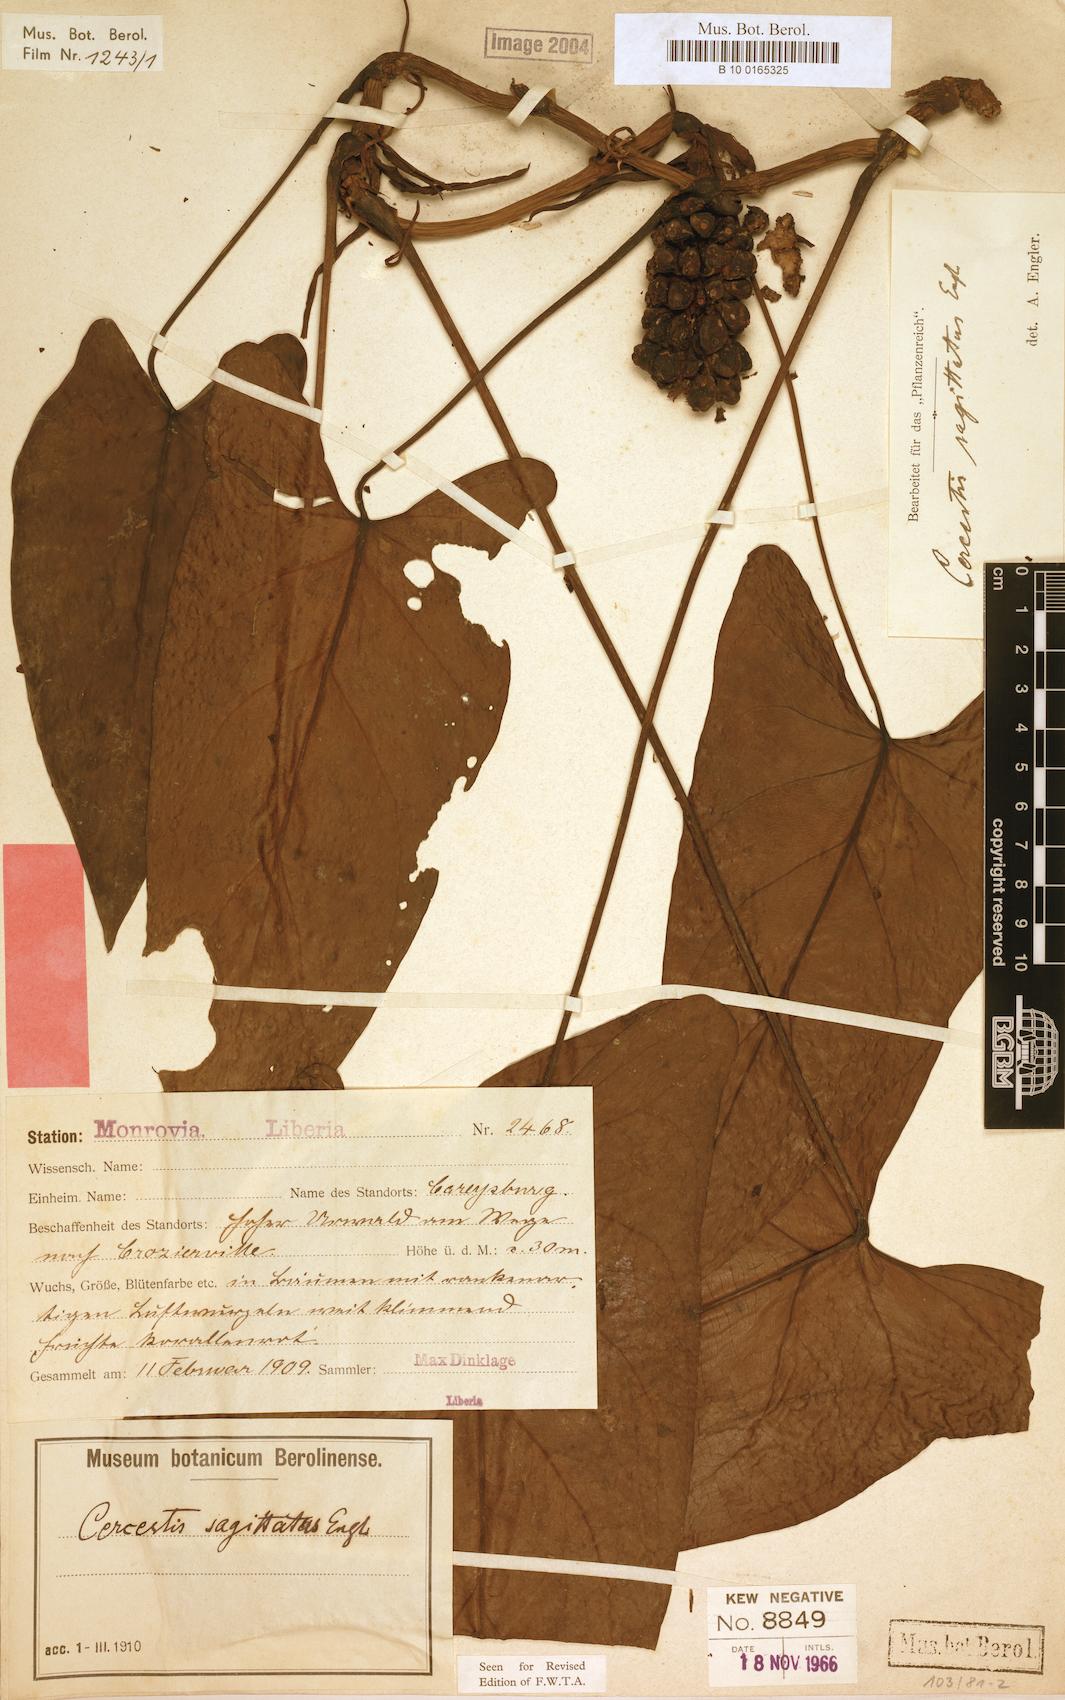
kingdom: Plantae
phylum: Tracheophyta
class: Liliopsida
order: Alismatales
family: Araceae
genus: Cercestis
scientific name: Cercestis sagittatus
